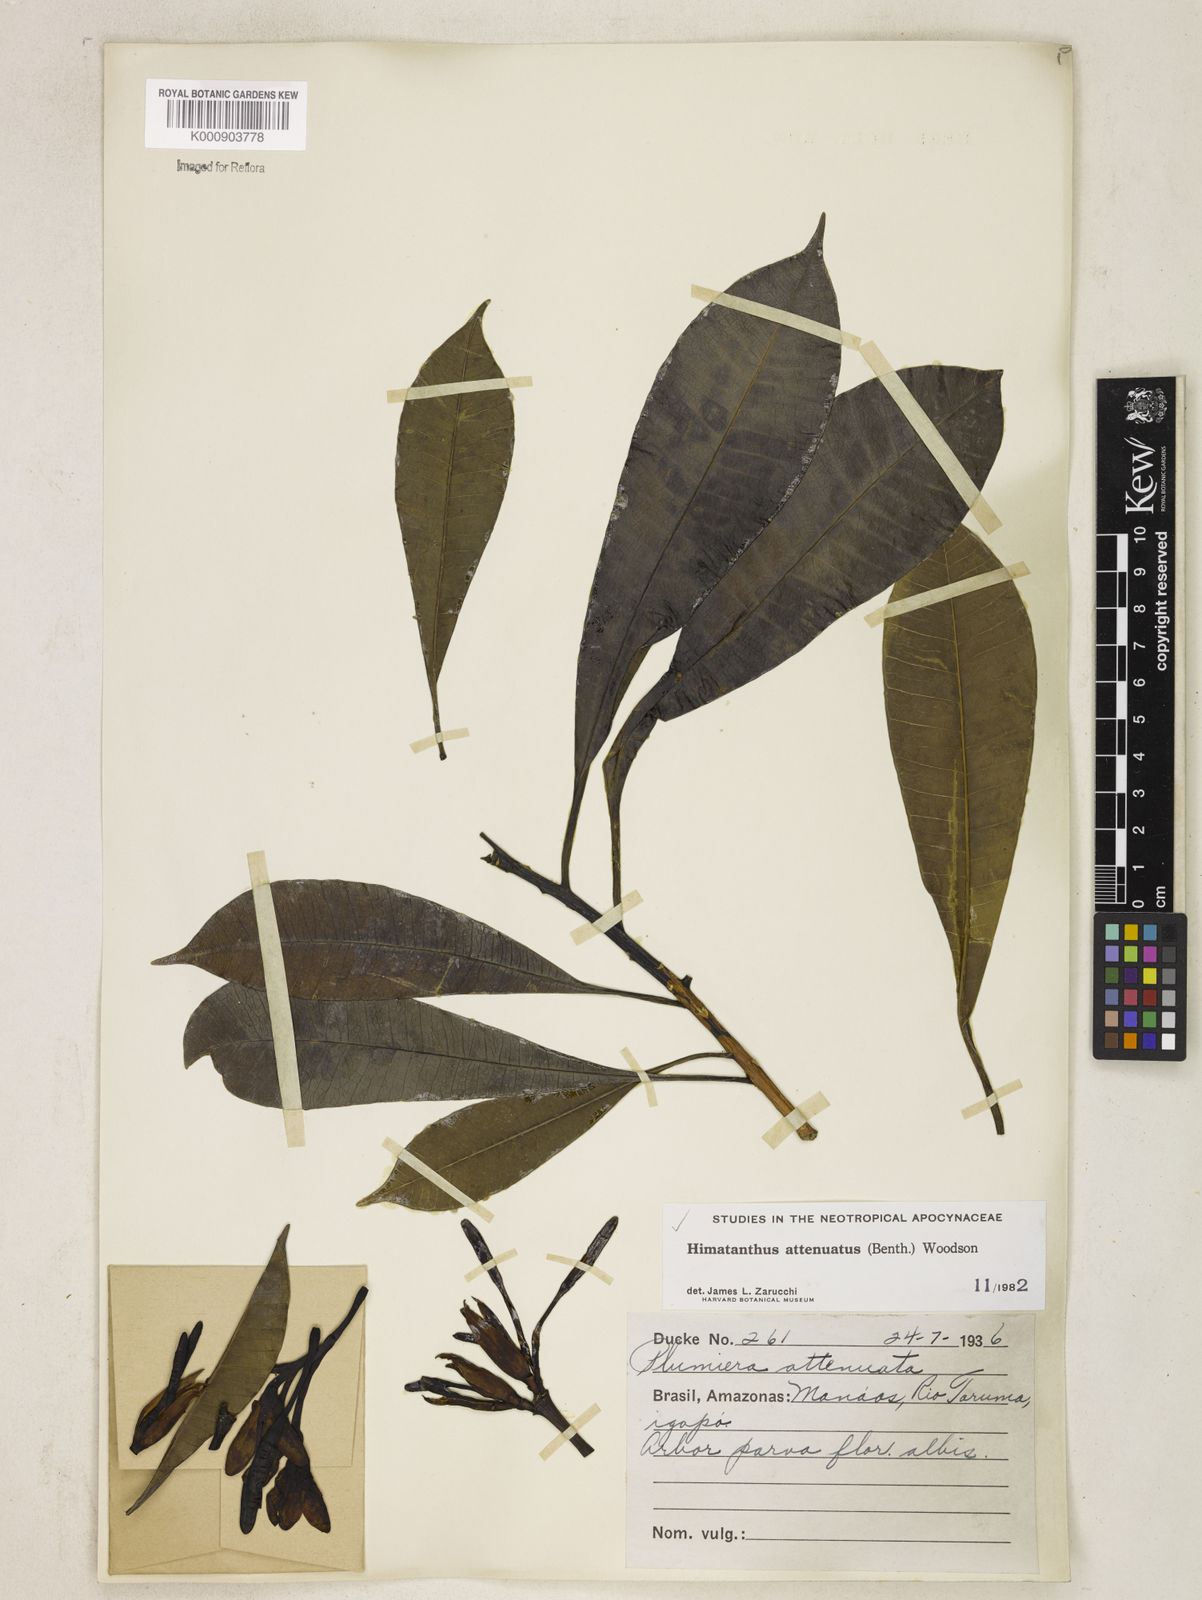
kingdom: Plantae
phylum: Tracheophyta
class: Magnoliopsida
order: Gentianales
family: Apocynaceae
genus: Himatanthus
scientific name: Himatanthus attenuatus
